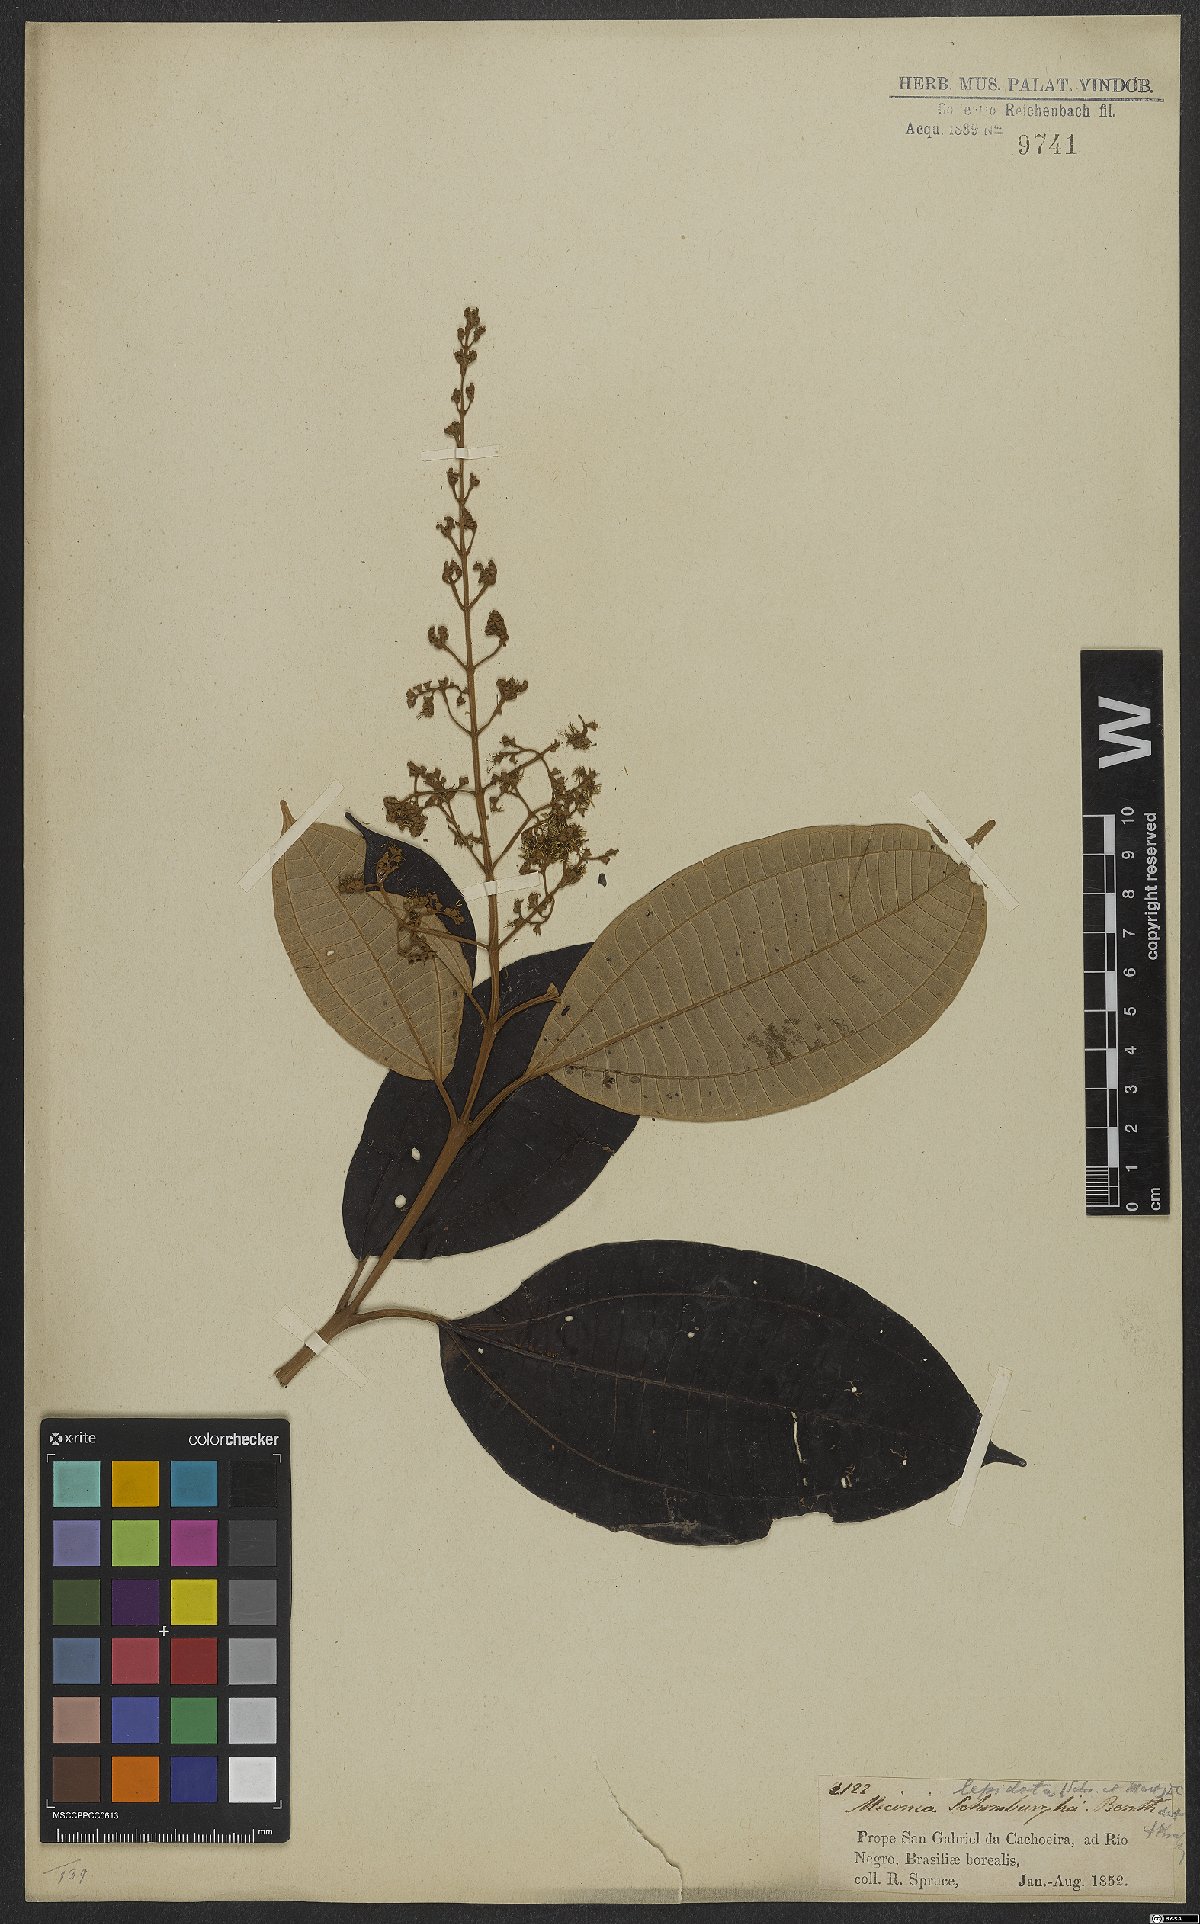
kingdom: Plantae
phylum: Tracheophyta
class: Magnoliopsida
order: Myrtales
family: Melastomataceae
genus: Miconia
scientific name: Miconia lepidota
